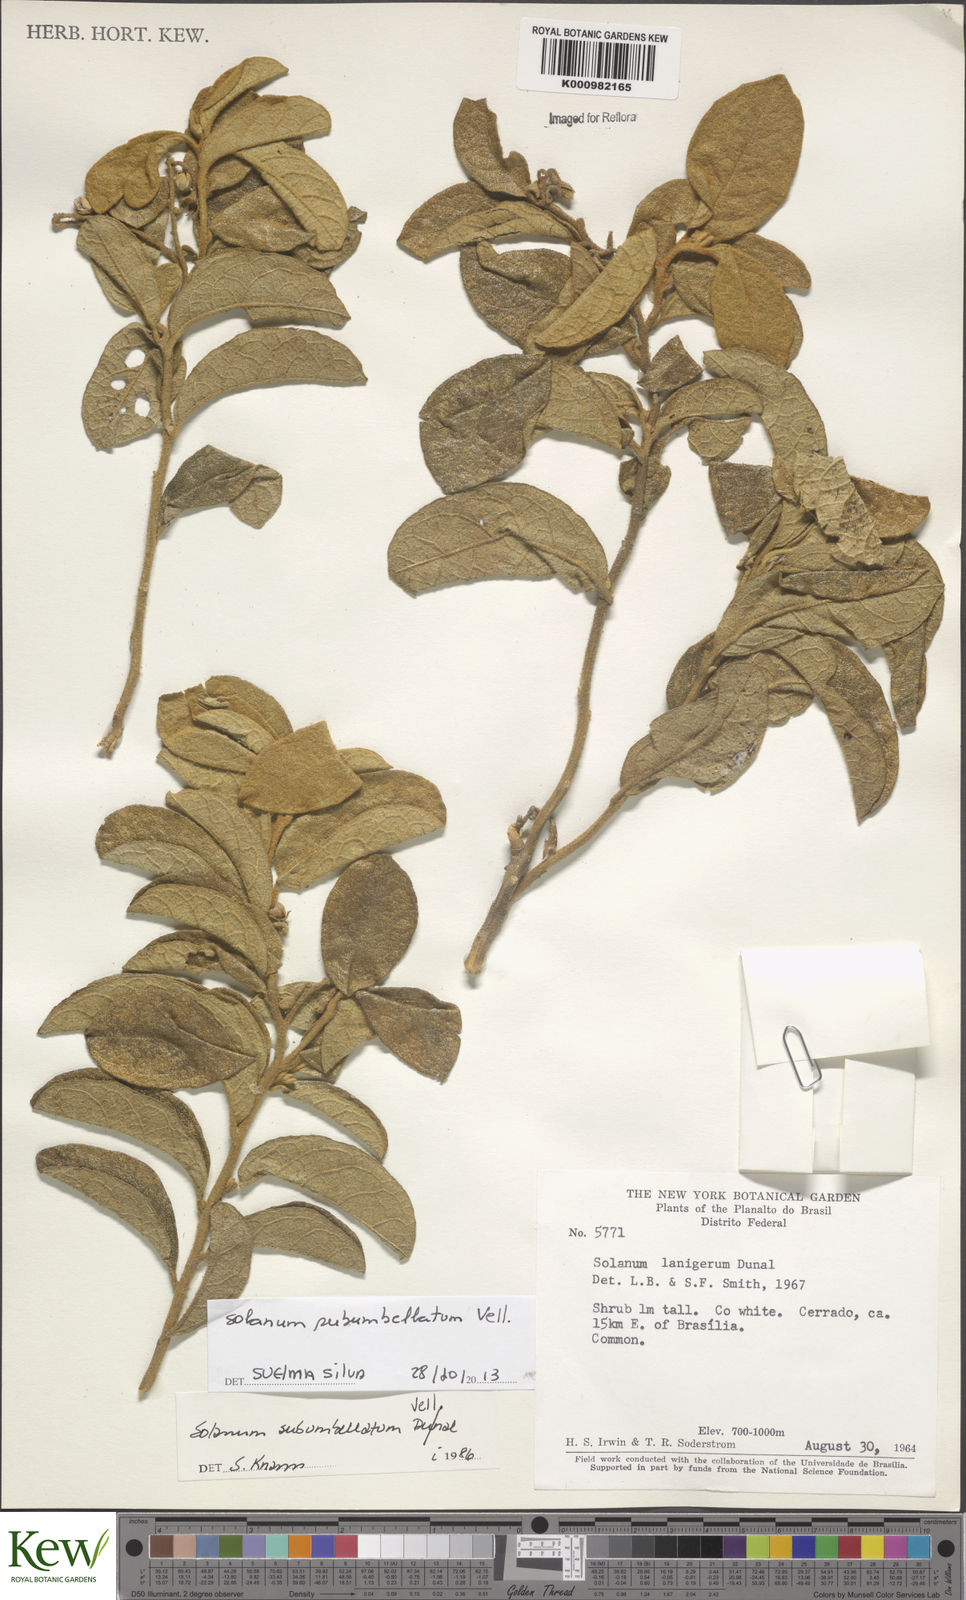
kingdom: Plantae
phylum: Tracheophyta
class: Magnoliopsida
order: Solanales
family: Solanaceae
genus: Solanum
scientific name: Solanum subumbellatum
